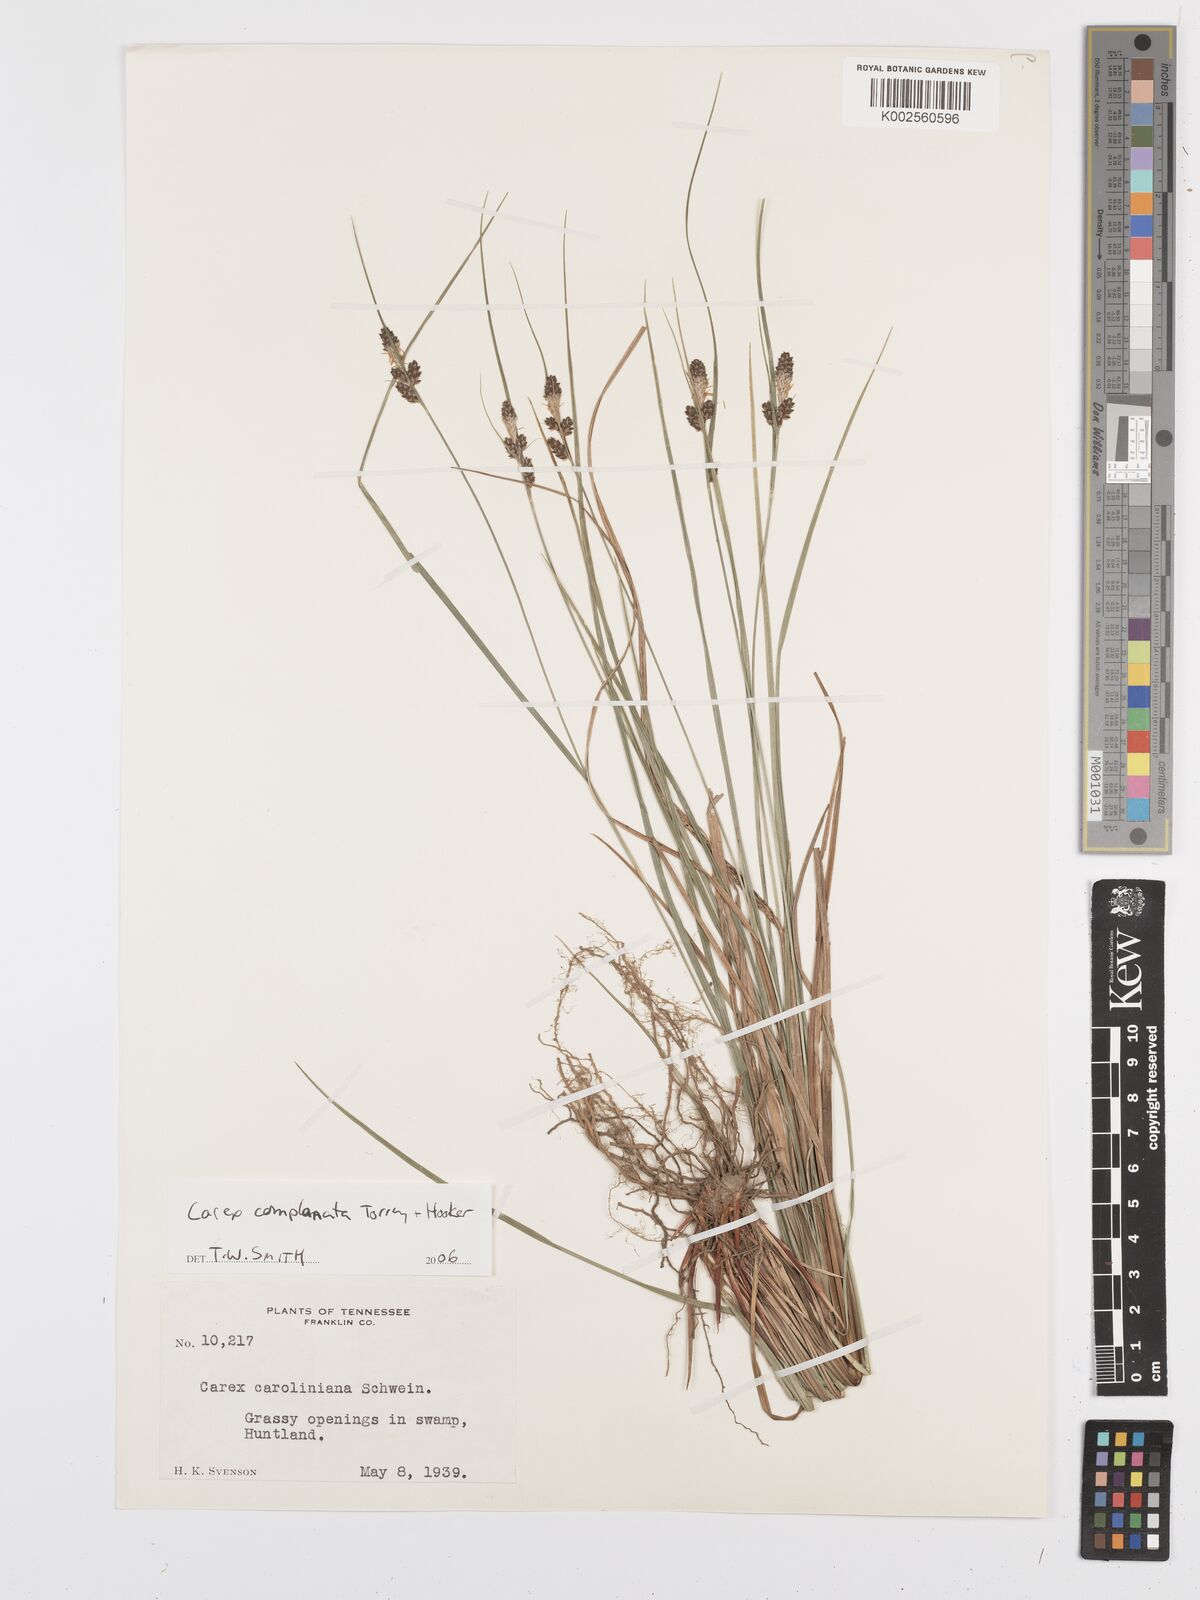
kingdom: Plantae
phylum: Tracheophyta
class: Liliopsida
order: Poales
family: Cyperaceae
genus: Carex
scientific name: Carex complanata
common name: Hirsute sedge
